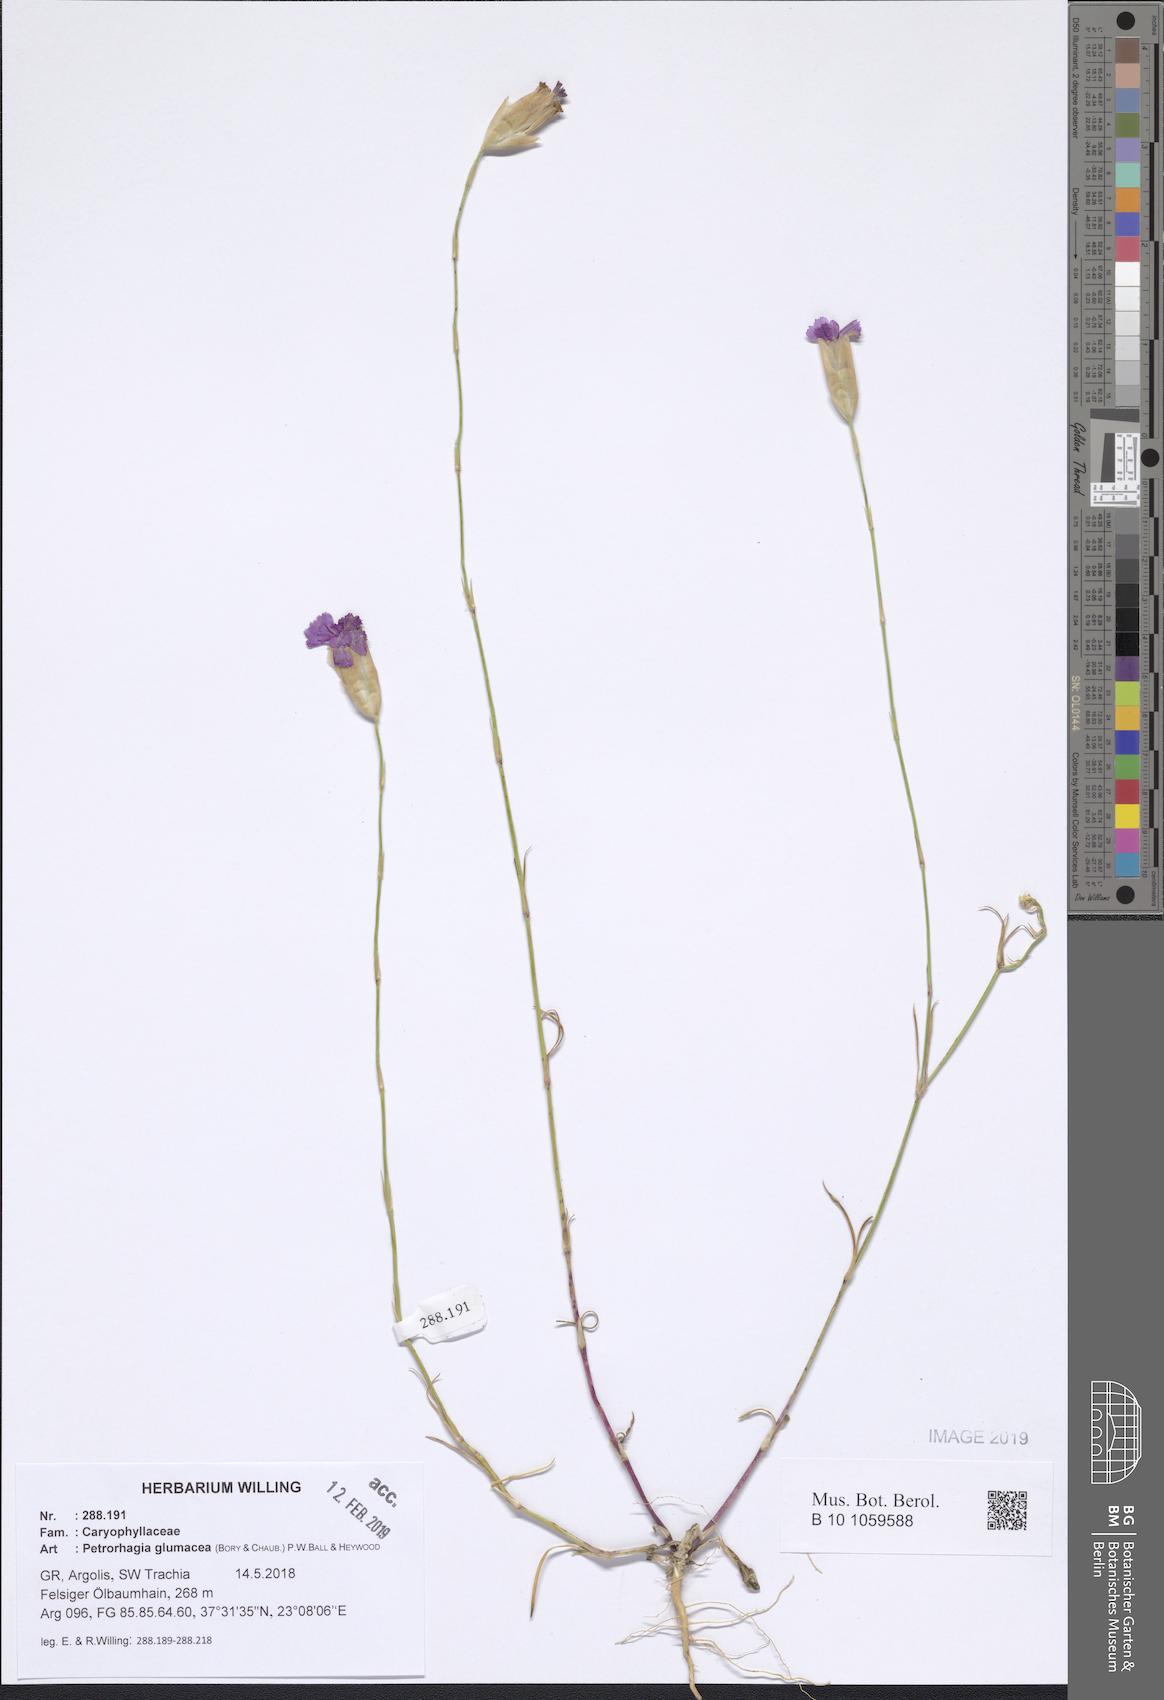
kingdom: Plantae
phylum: Tracheophyta
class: Magnoliopsida
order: Caryophyllales
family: Caryophyllaceae
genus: Petrorhagia
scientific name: Petrorhagia glumacea
